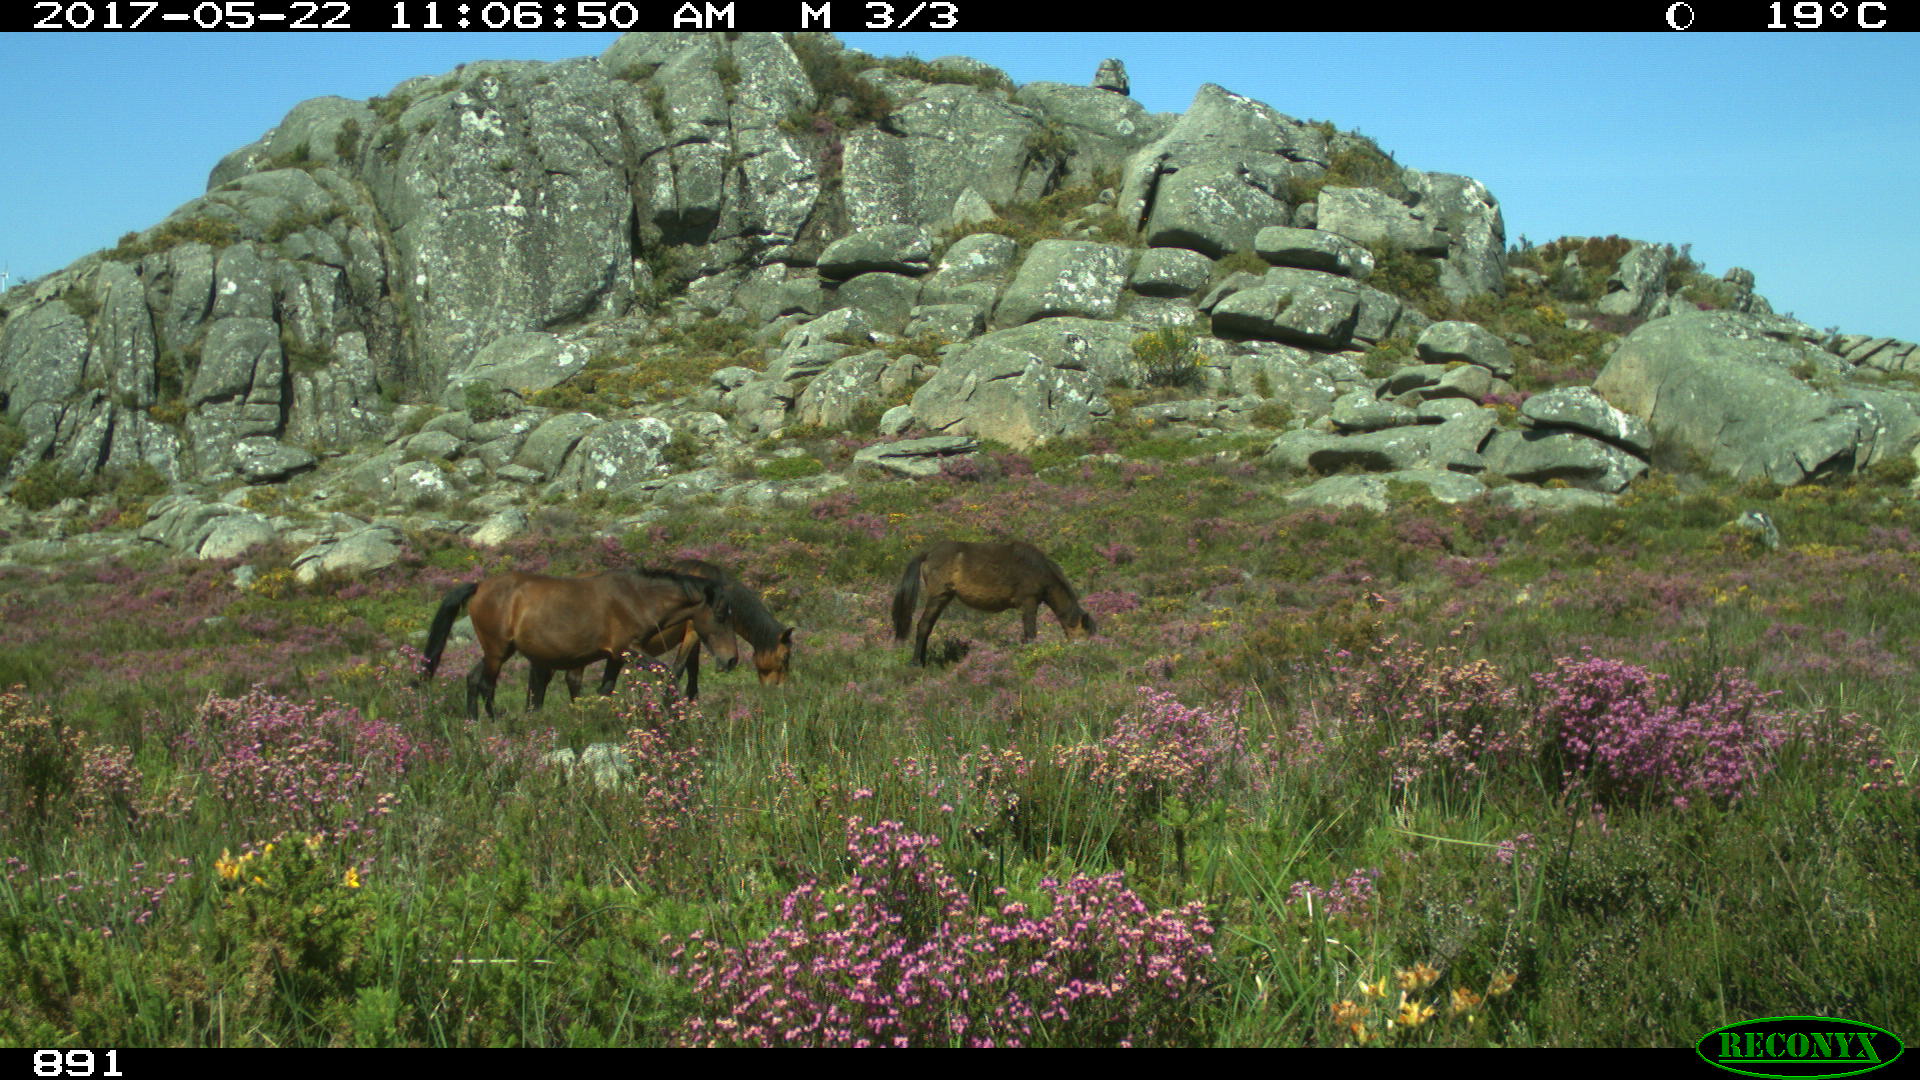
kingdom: Animalia
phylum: Chordata
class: Mammalia
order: Perissodactyla
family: Equidae
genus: Equus
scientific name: Equus caballus
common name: Horse
